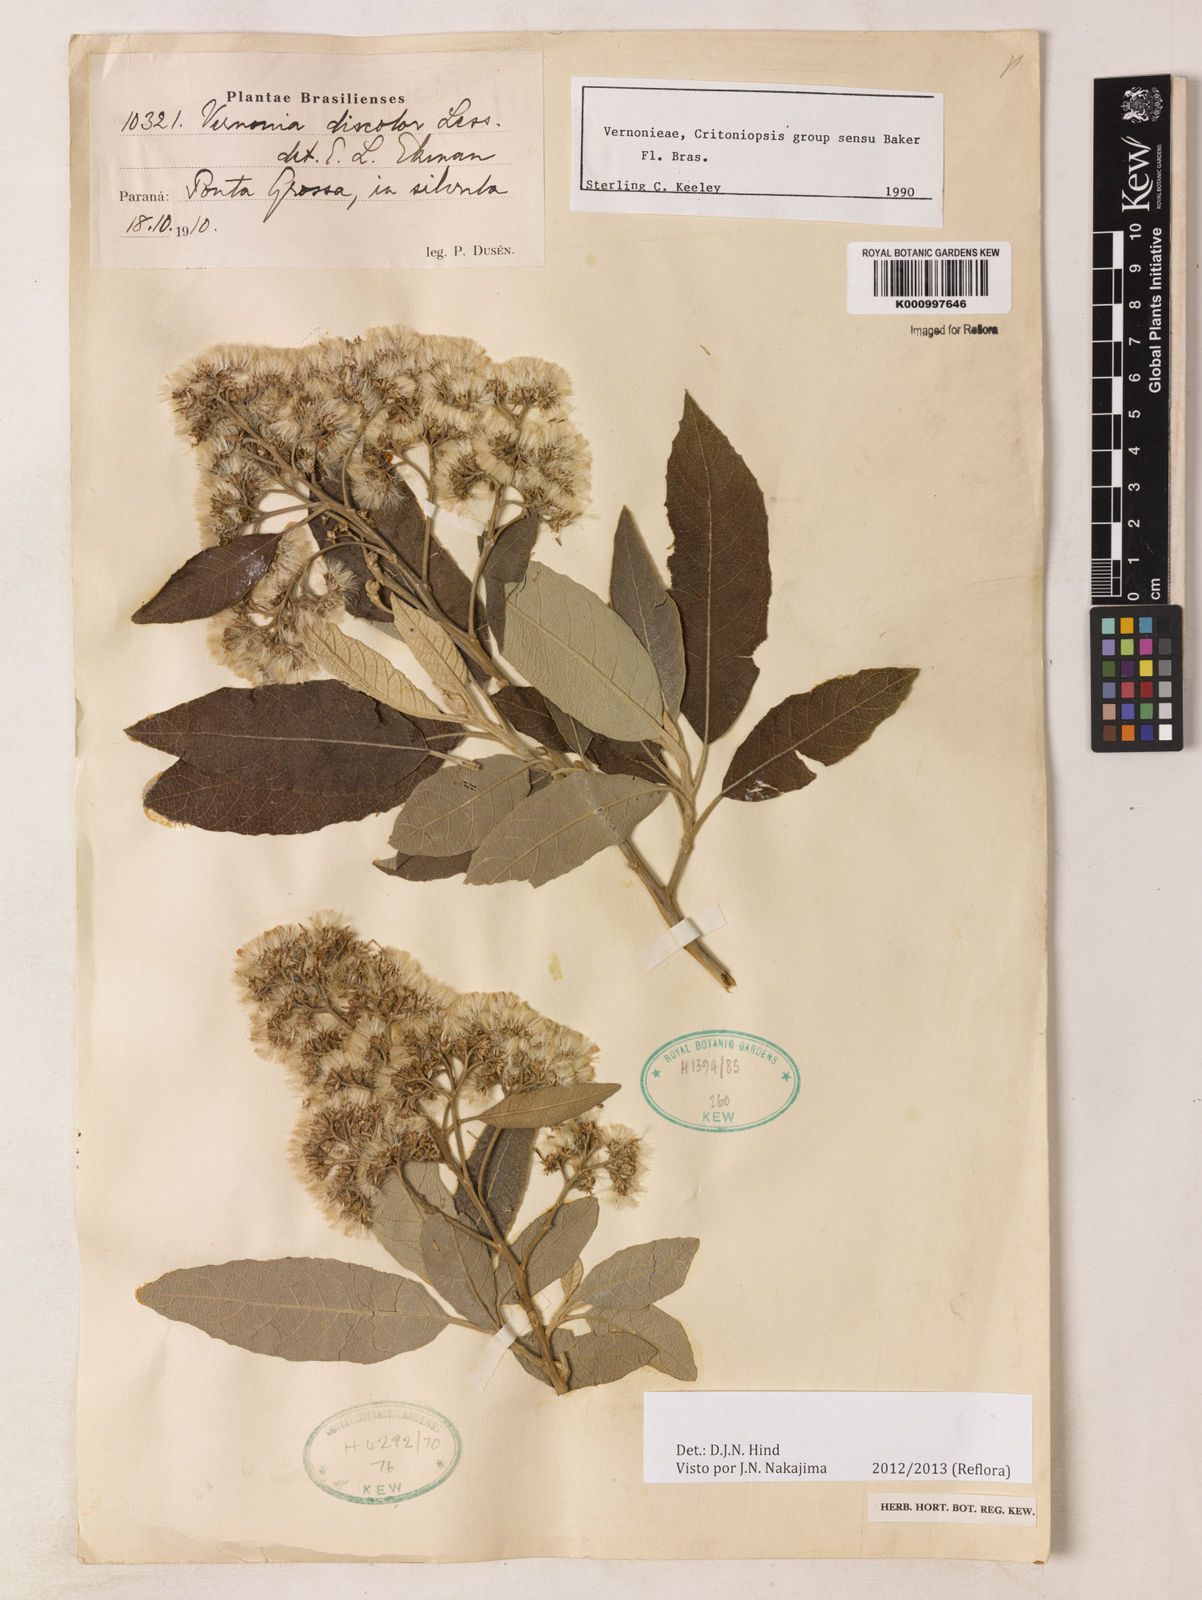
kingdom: Plantae
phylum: Tracheophyta
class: Magnoliopsida
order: Asterales
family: Asteraceae
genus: Vernonanthura
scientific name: Vernonanthura discolor
